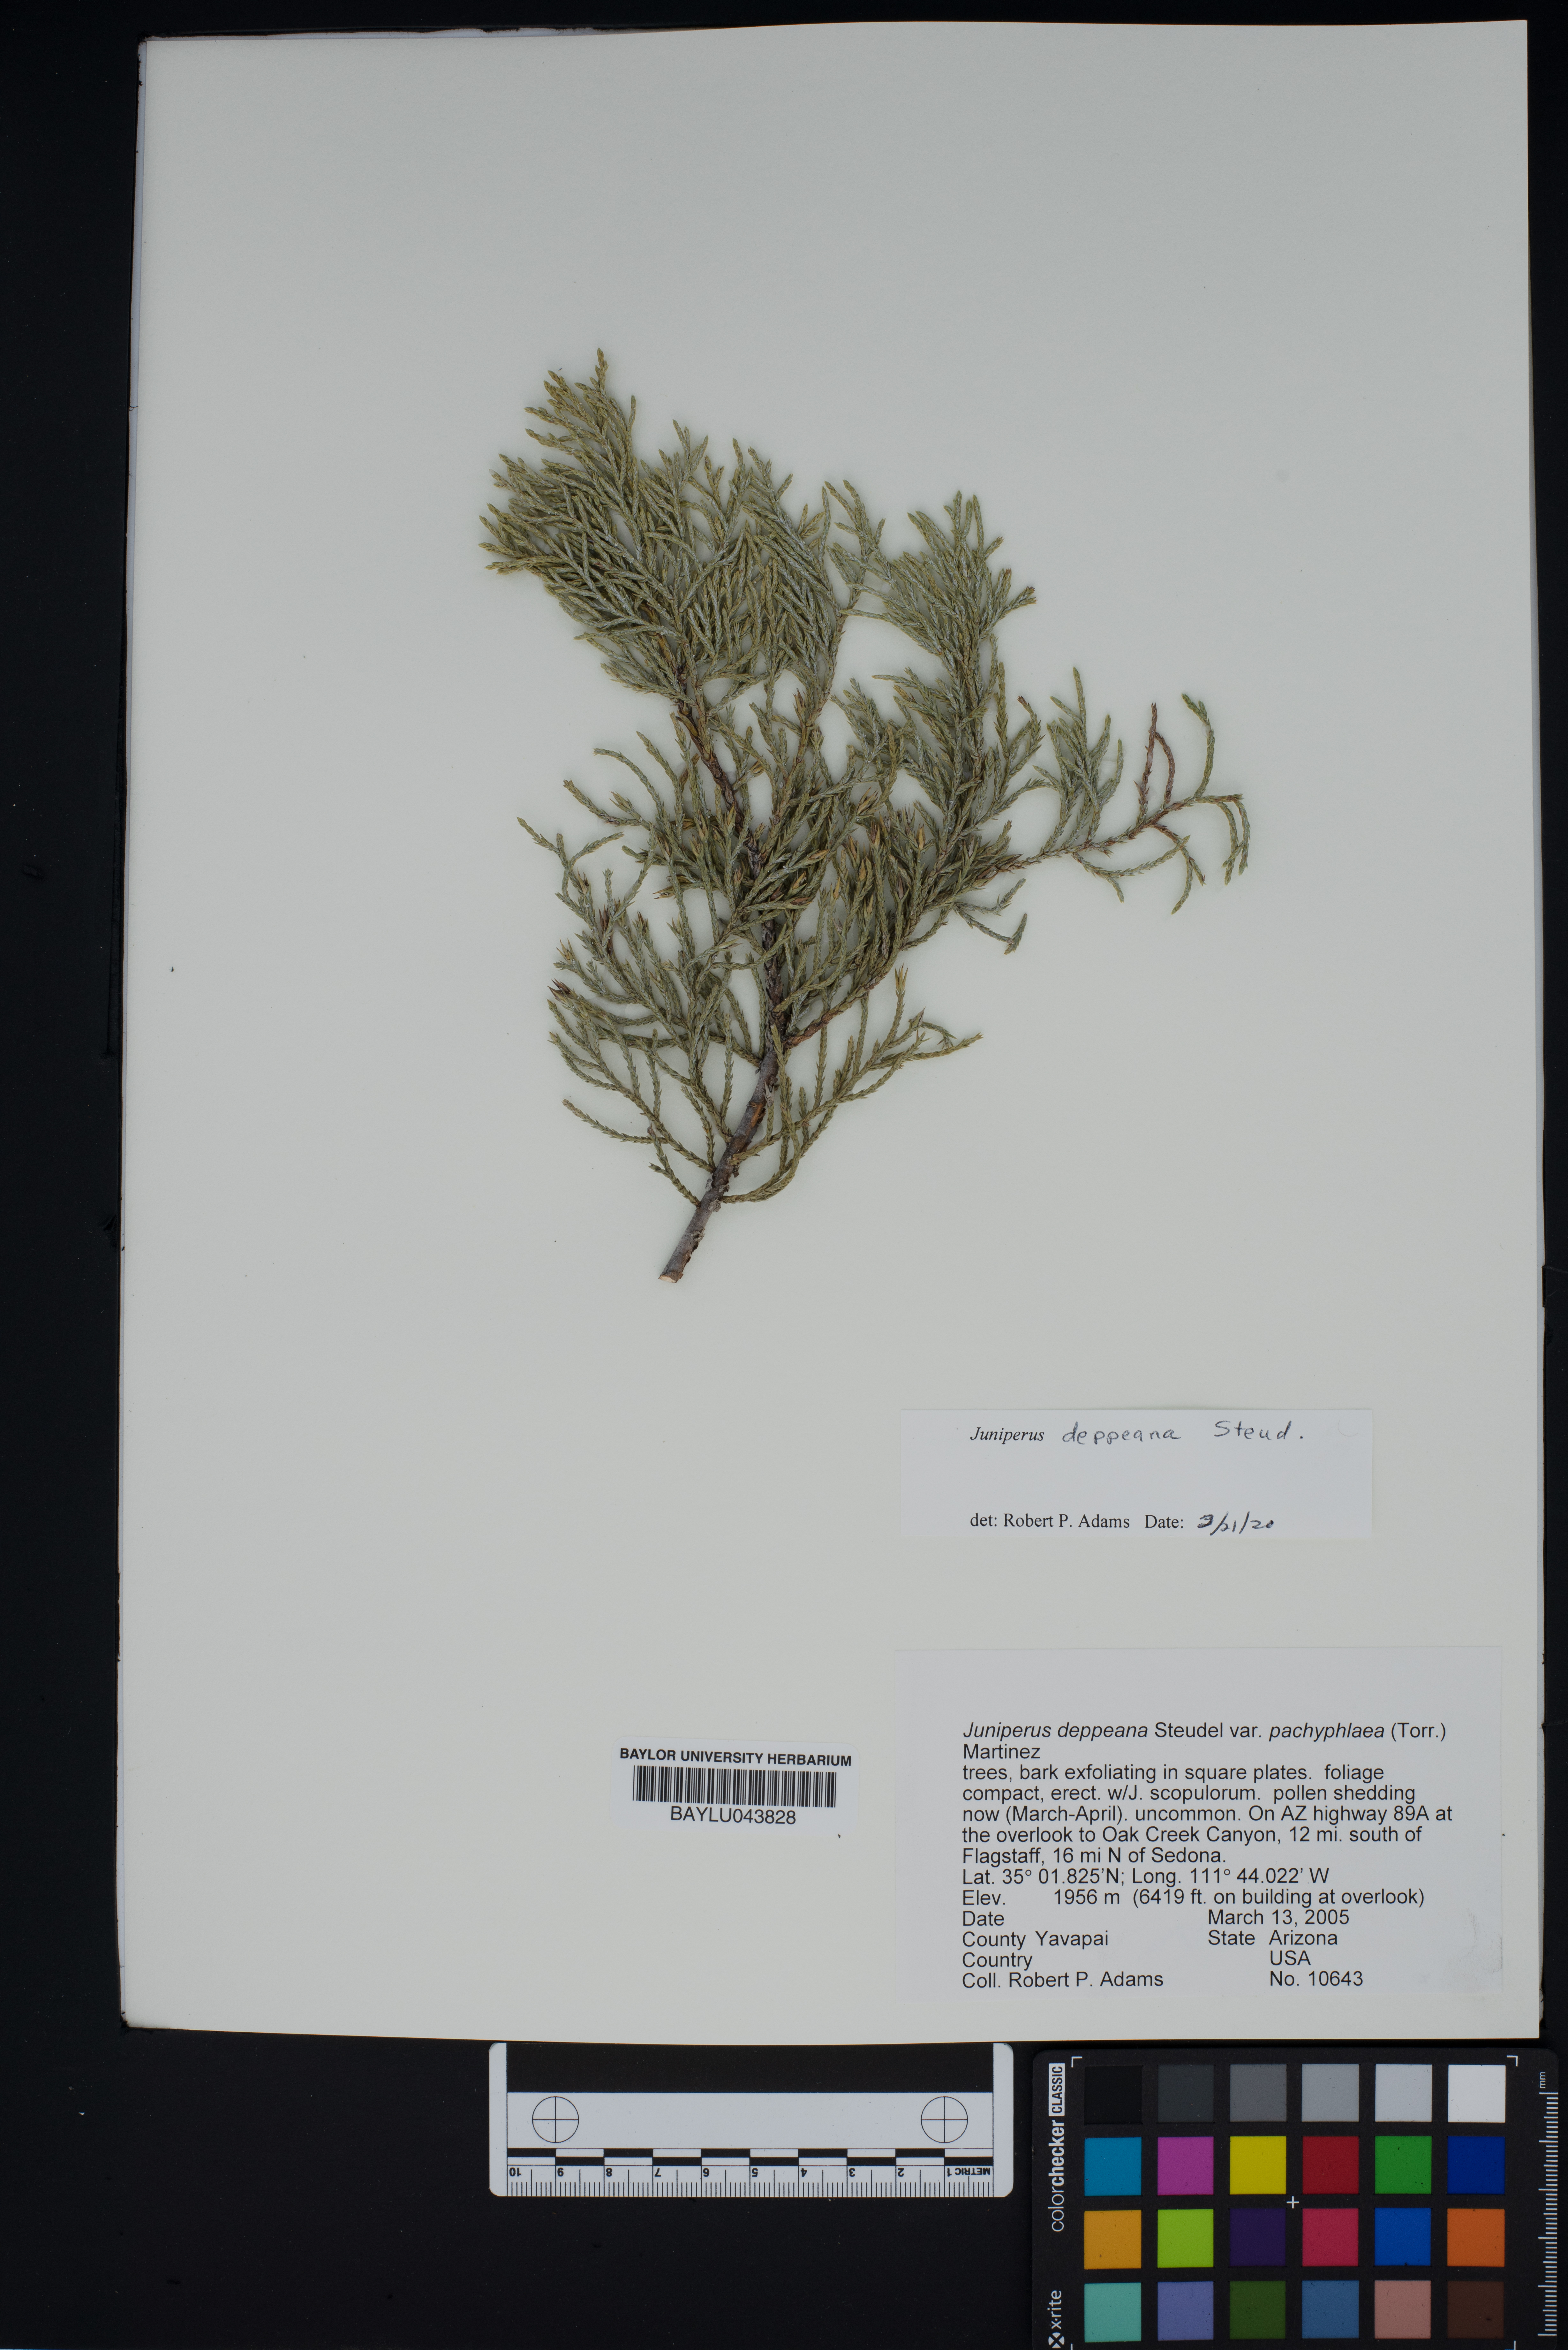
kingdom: Plantae
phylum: Tracheophyta
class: Pinopsida
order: Pinales
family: Cupressaceae
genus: Juniperus
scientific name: Juniperus deppeana
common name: Alligator juniper
